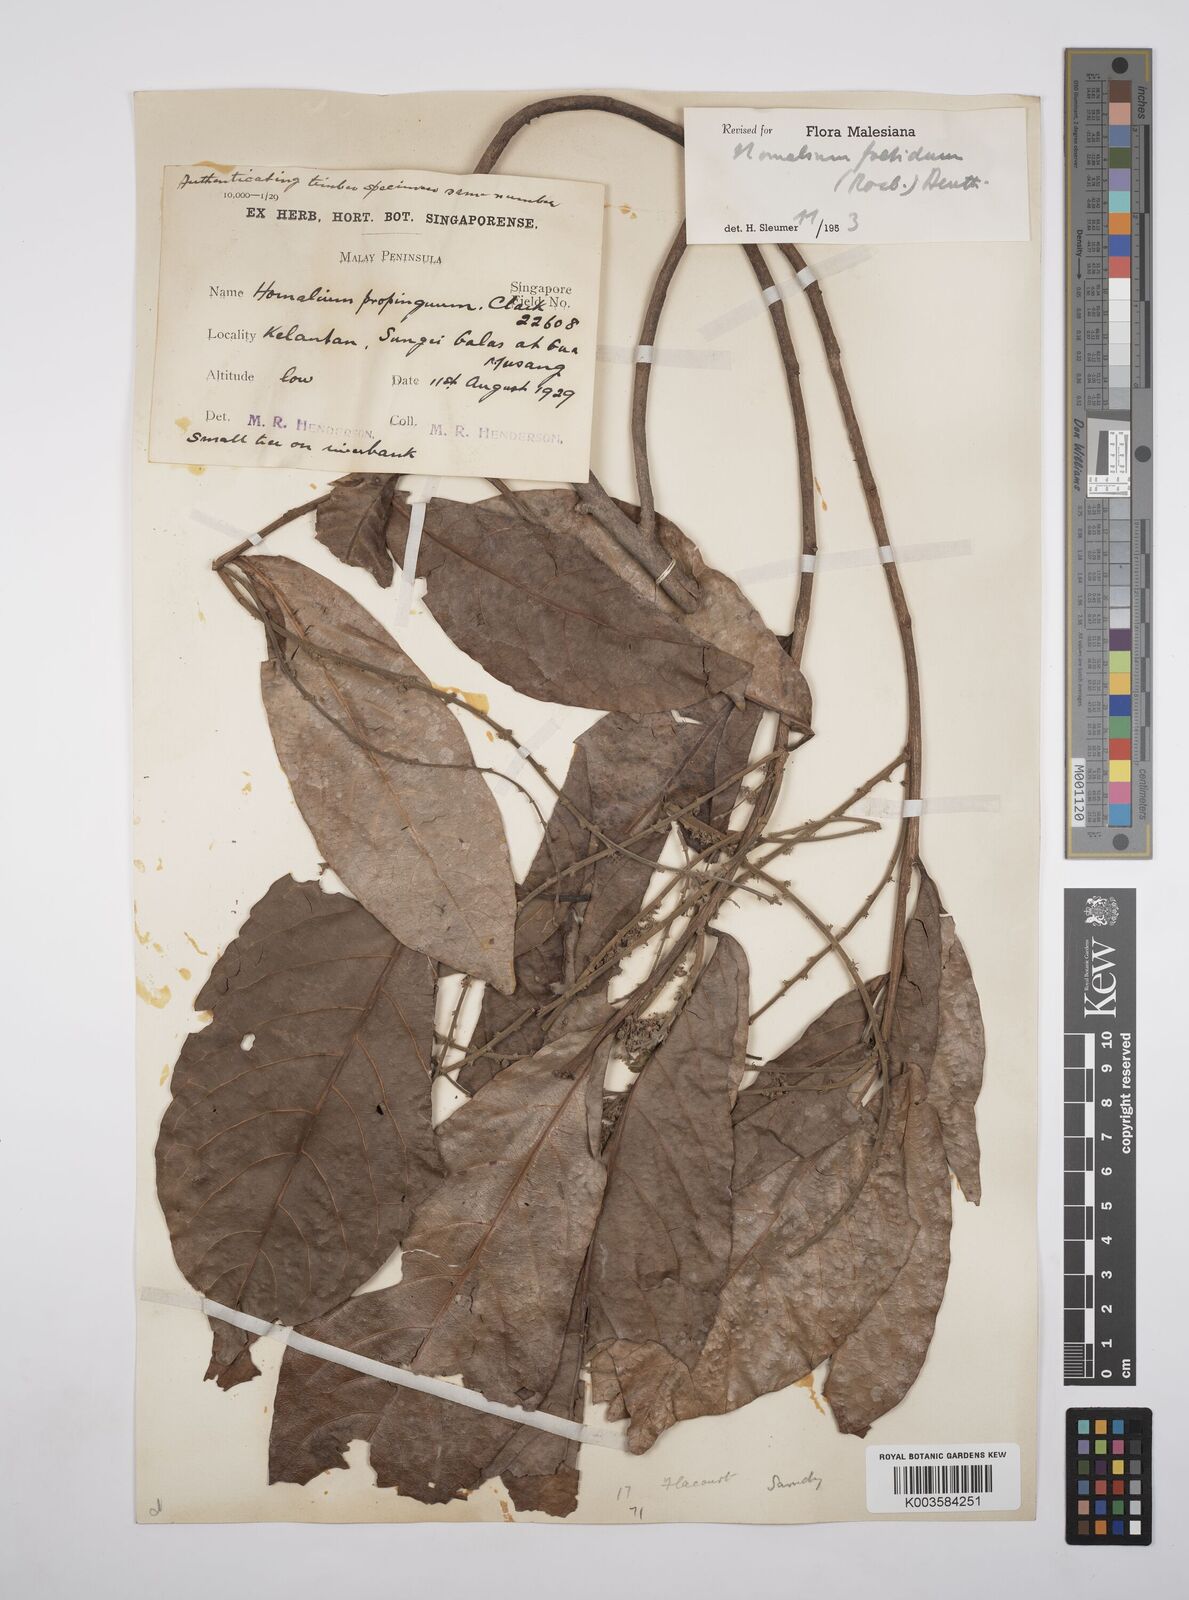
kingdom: Plantae
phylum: Tracheophyta
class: Magnoliopsida
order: Malpighiales
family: Salicaceae
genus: Homalium
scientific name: Homalium foetidum
